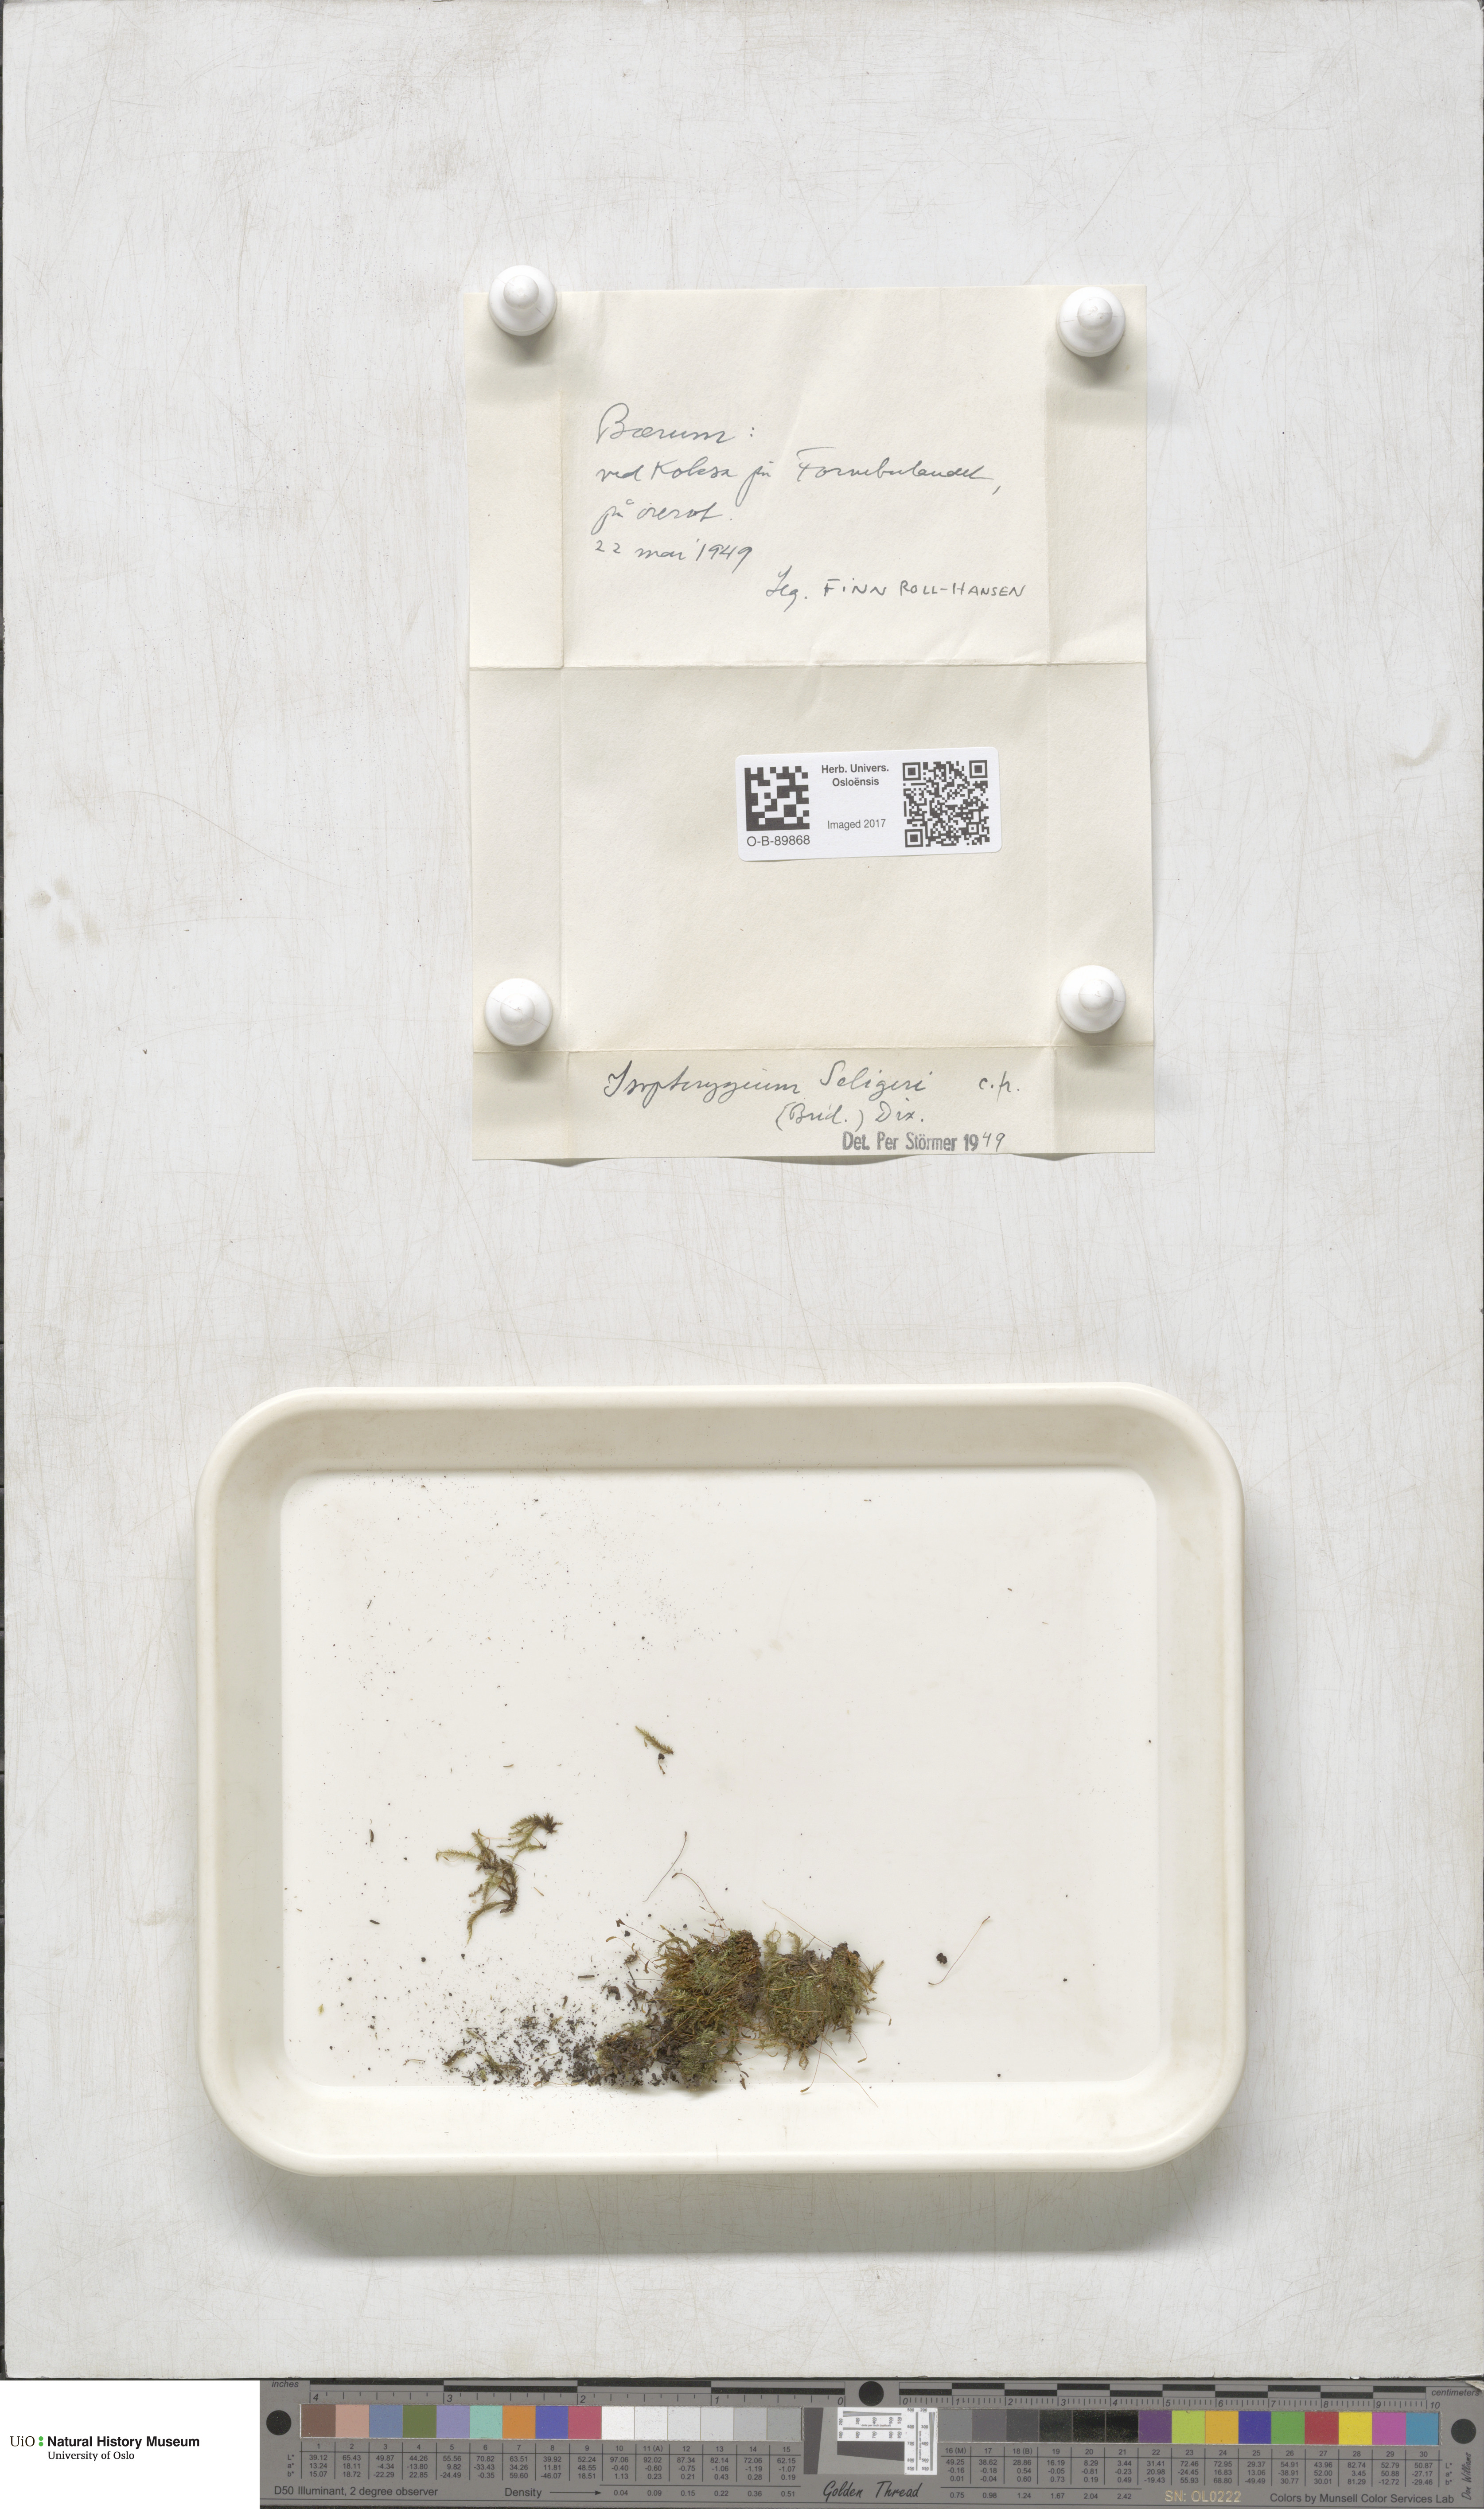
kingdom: Plantae
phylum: Bryophyta
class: Bryopsida
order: Hypnales
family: Plagiotheciaceae
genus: Herzogiella
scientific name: Herzogiella seligeri
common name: Silesian feather-moss
